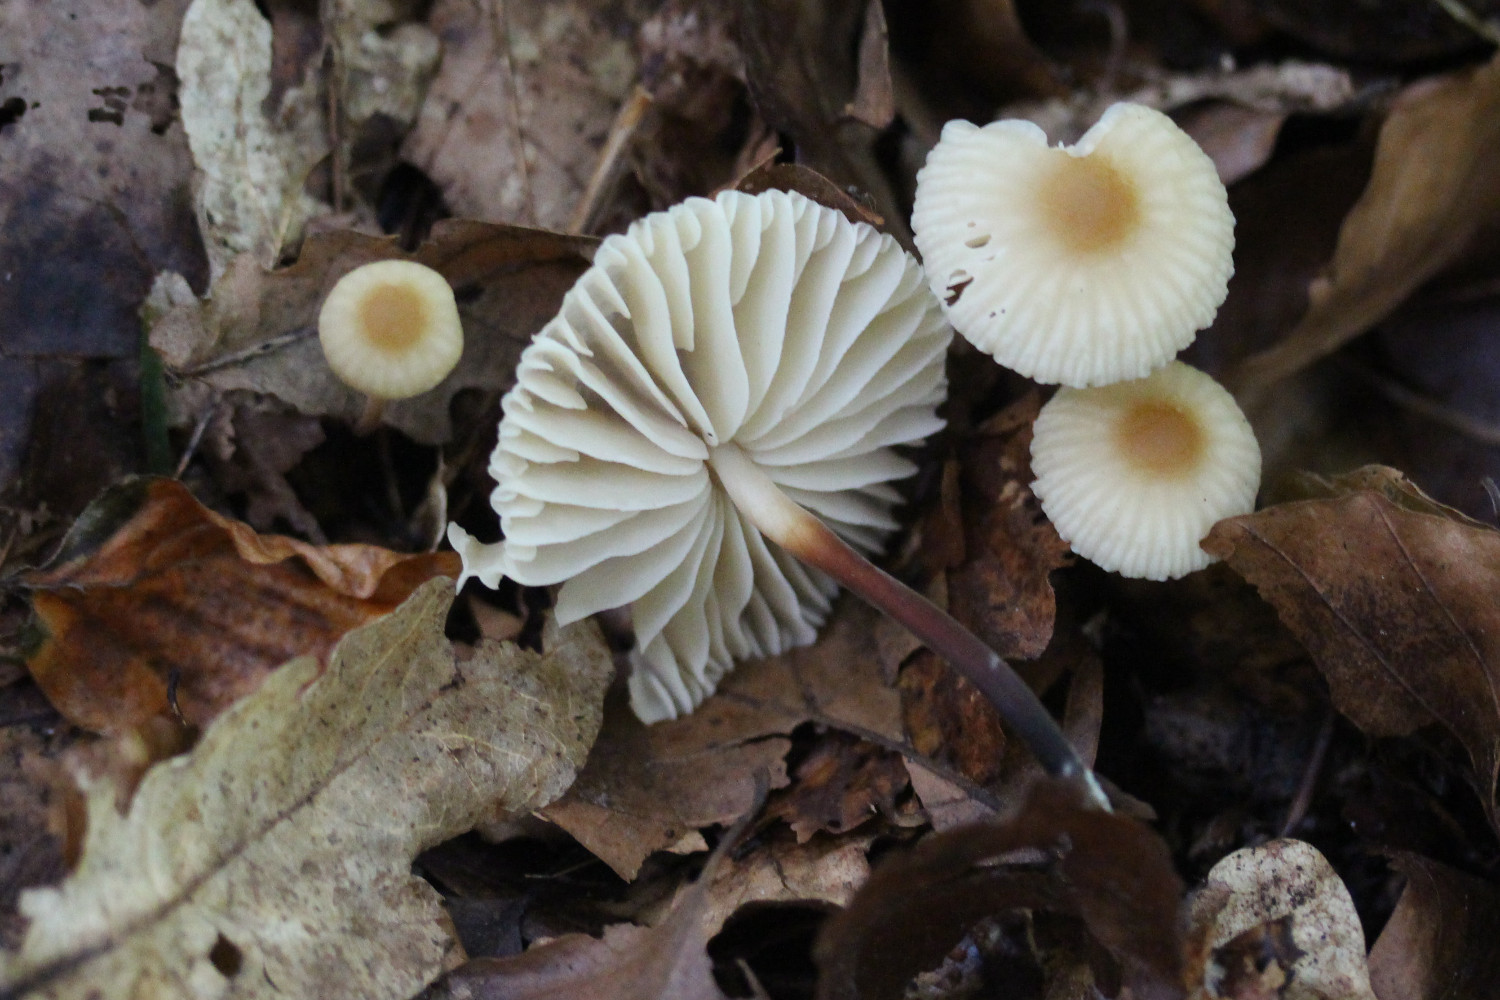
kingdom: Fungi
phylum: Basidiomycota
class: Agaricomycetes
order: Agaricales
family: Marasmiaceae
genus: Marasmius
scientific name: Marasmius torquescens
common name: filtfodet bruskhat
